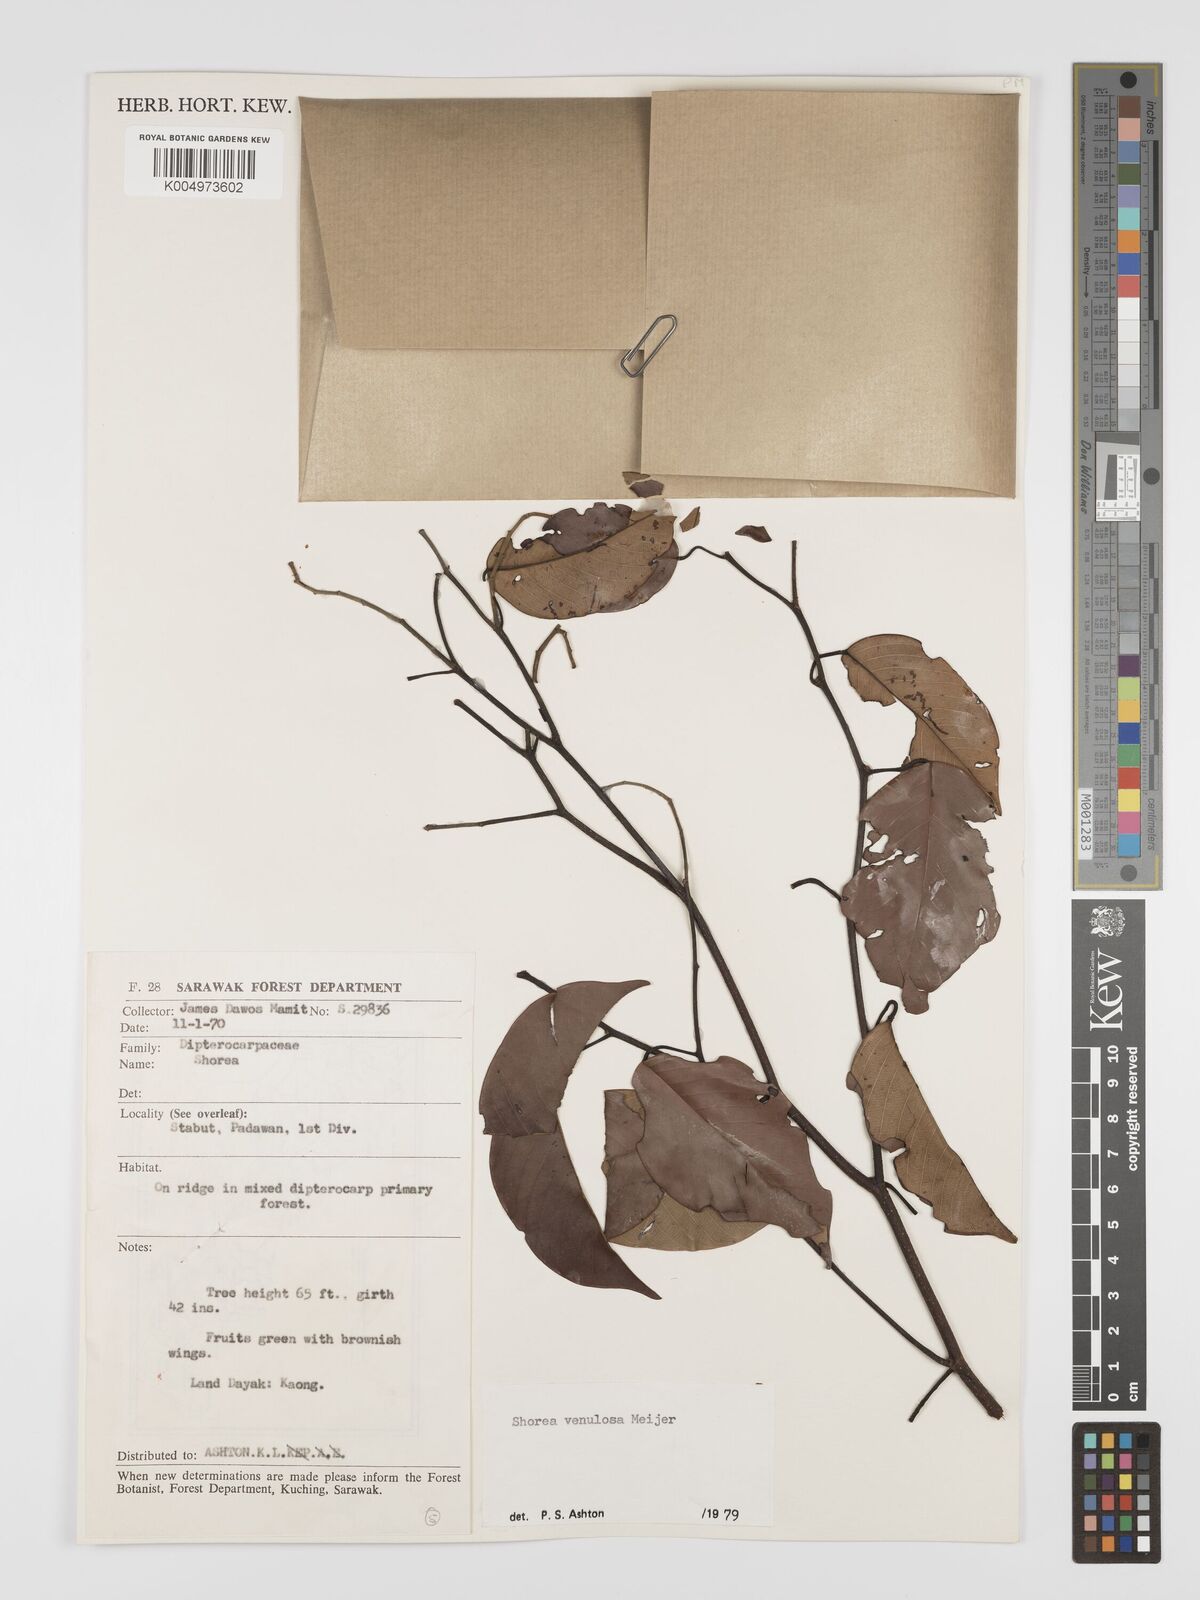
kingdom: Plantae
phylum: Tracheophyta
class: Magnoliopsida
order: Malvales
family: Dipterocarpaceae
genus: Shorea
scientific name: Shorea venulosa
